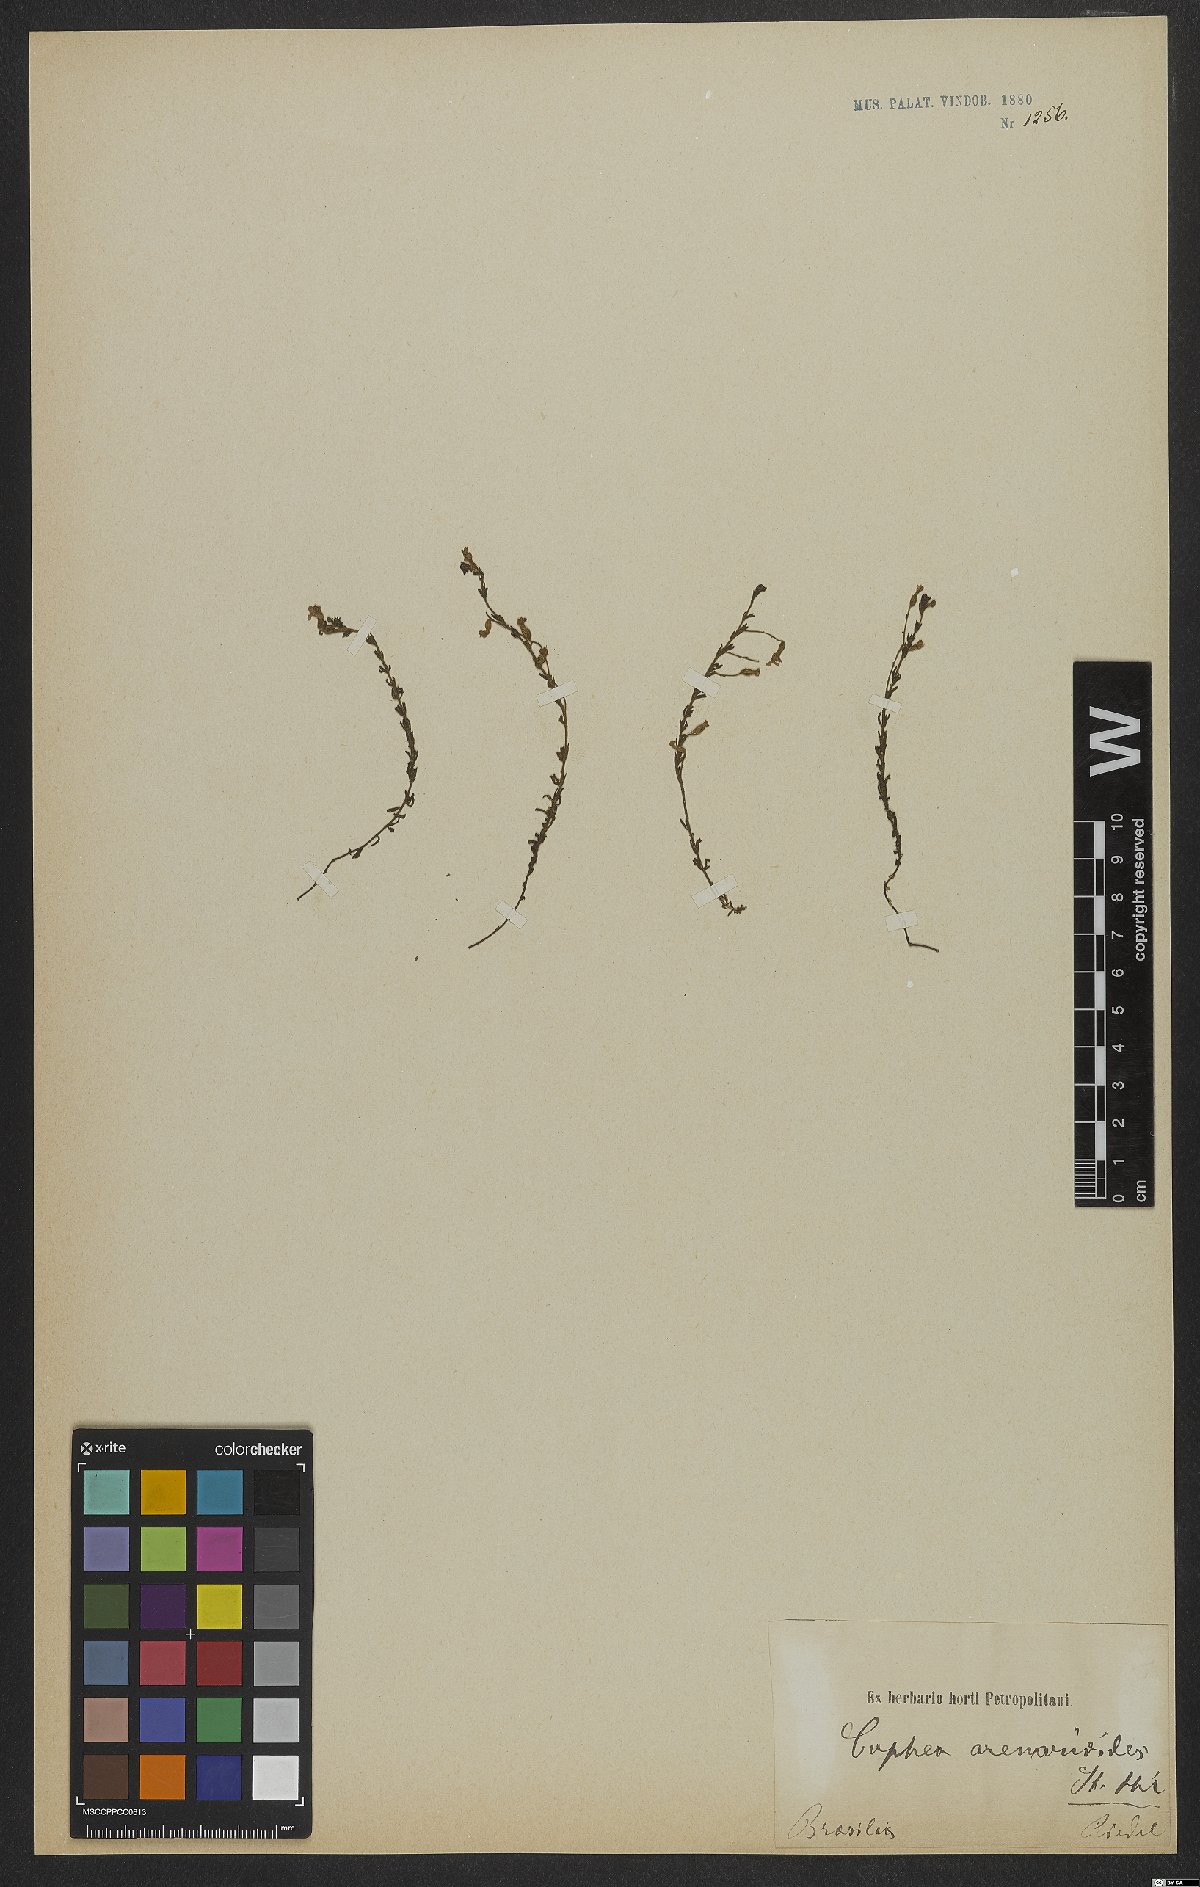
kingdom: Plantae
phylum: Tracheophyta
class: Magnoliopsida
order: Myrtales
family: Lythraceae
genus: Cuphea
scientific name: Cuphea arenarioides
